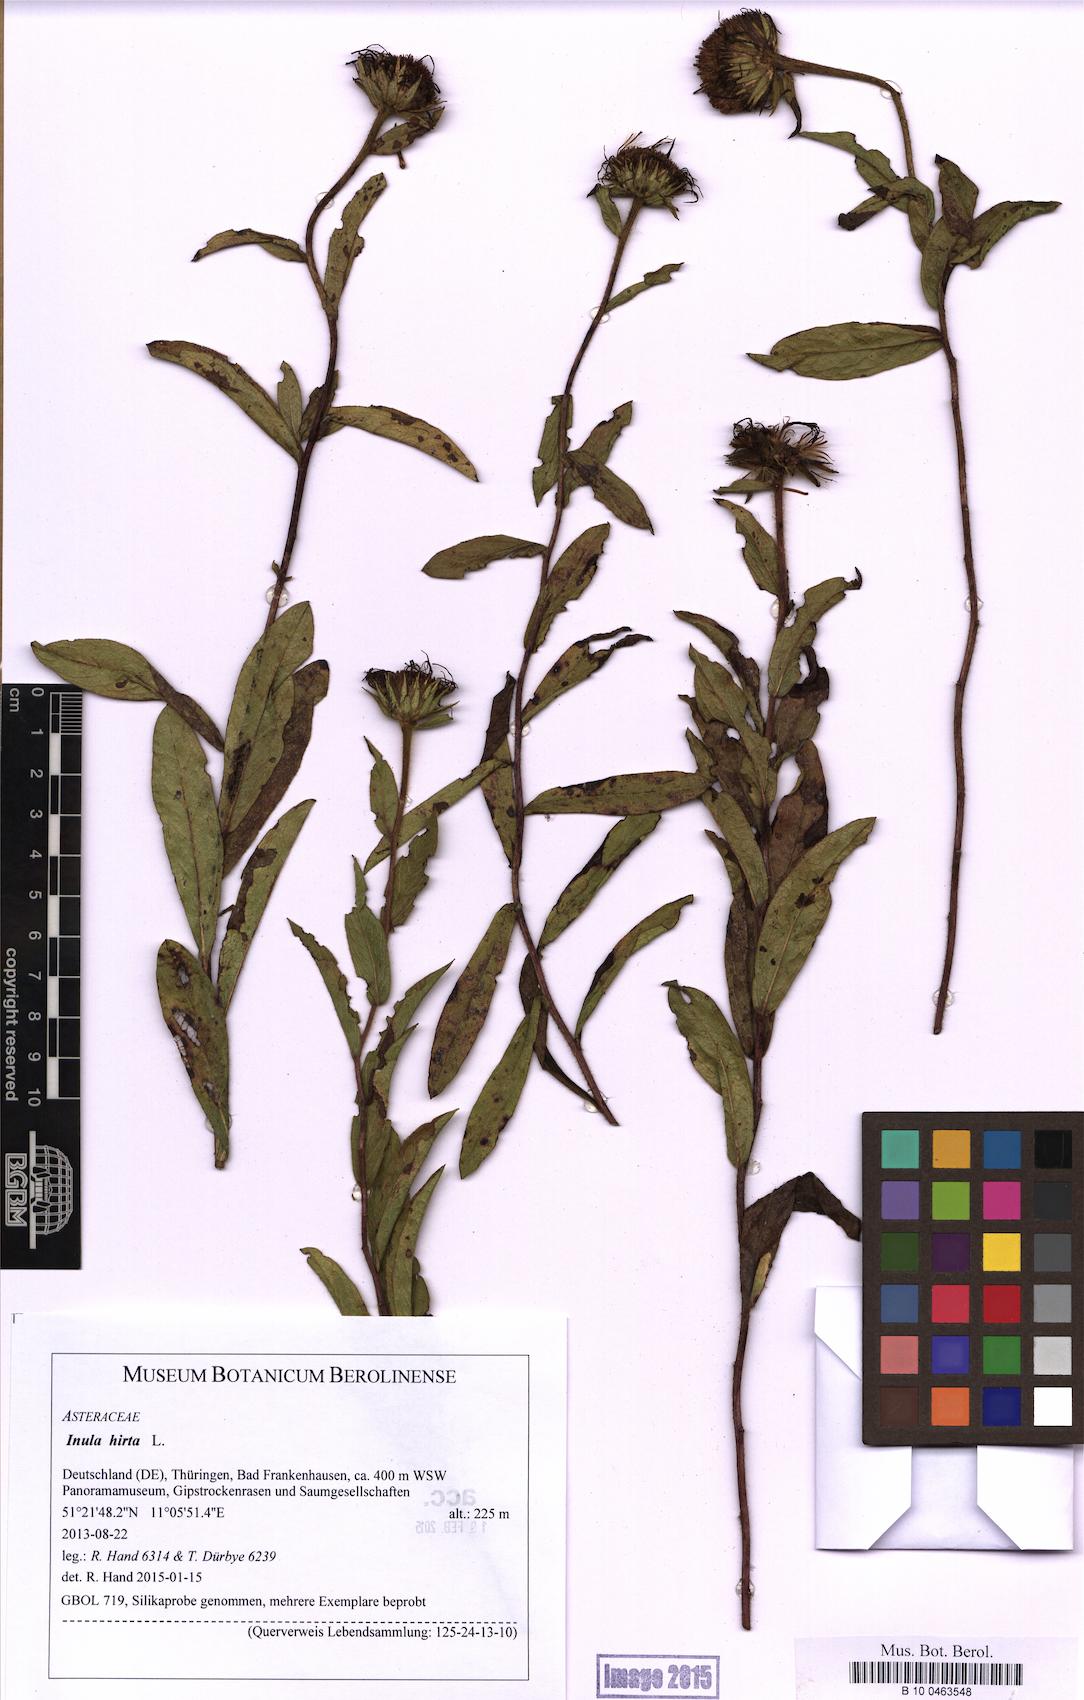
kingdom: Plantae
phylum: Tracheophyta
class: Magnoliopsida
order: Asterales
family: Asteraceae
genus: Pentanema
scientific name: Pentanema hirtum
